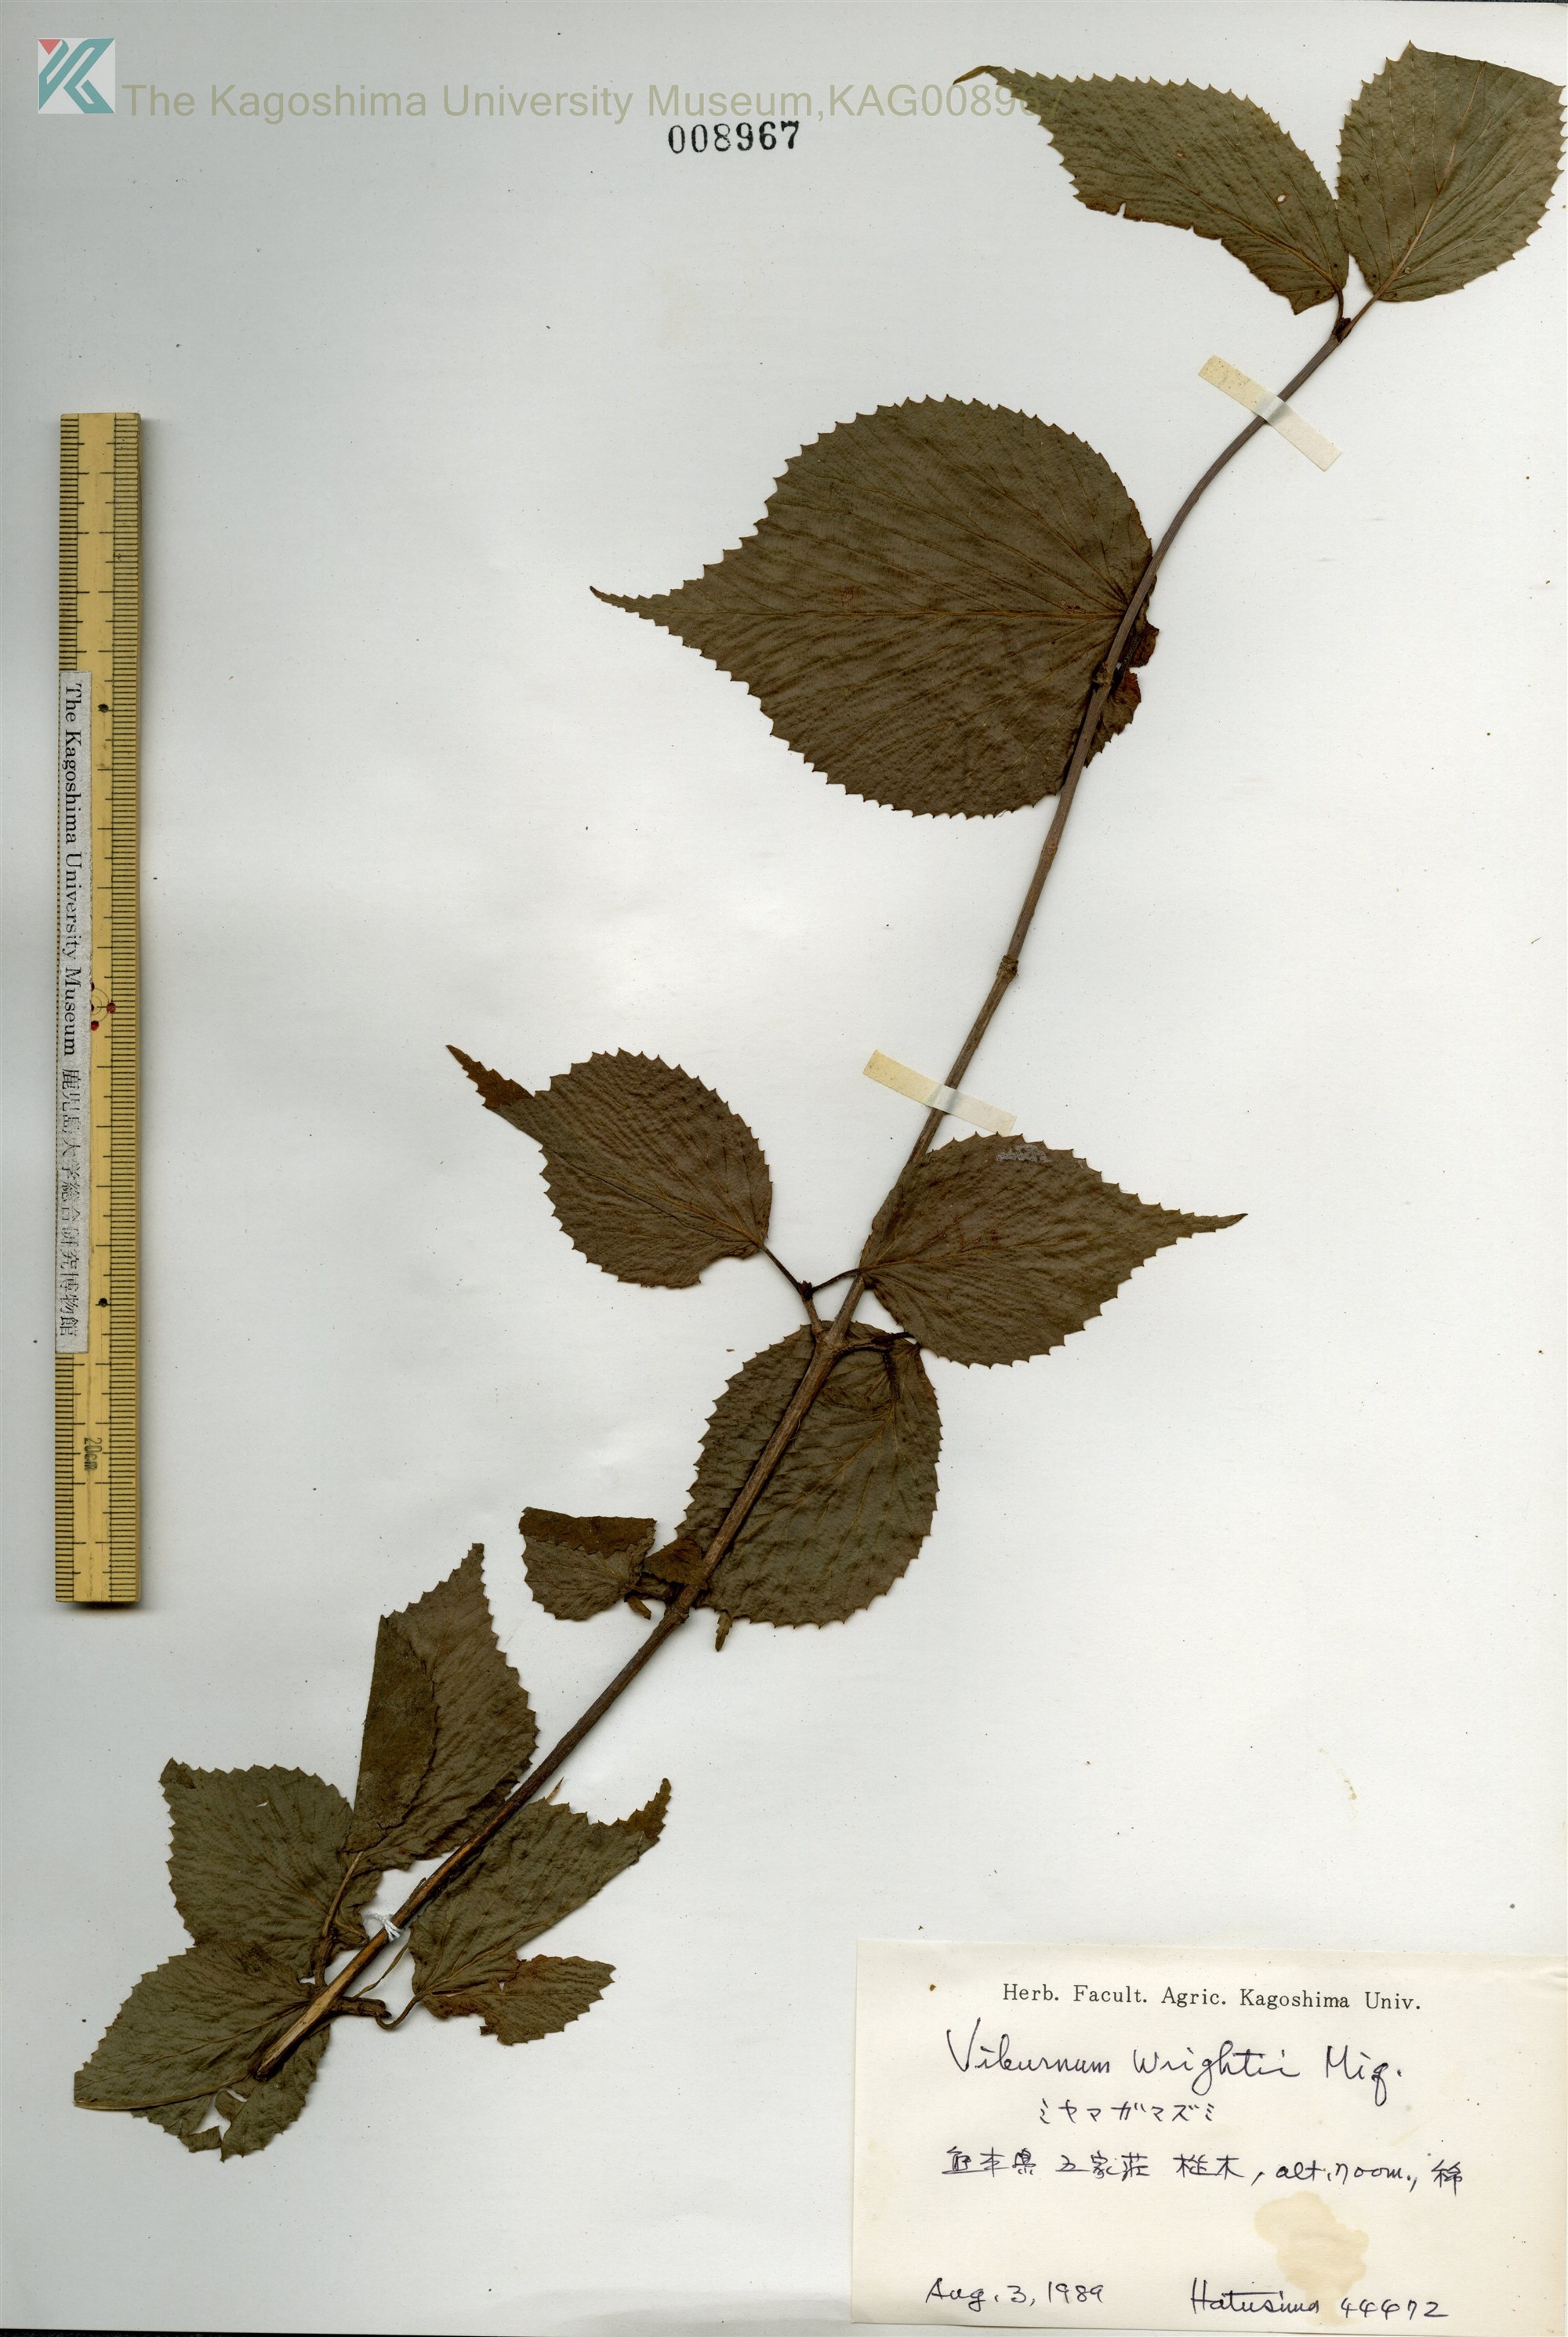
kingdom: Plantae
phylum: Tracheophyta
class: Magnoliopsida
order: Dipsacales
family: Viburnaceae
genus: Viburnum
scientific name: Viburnum wrightii
